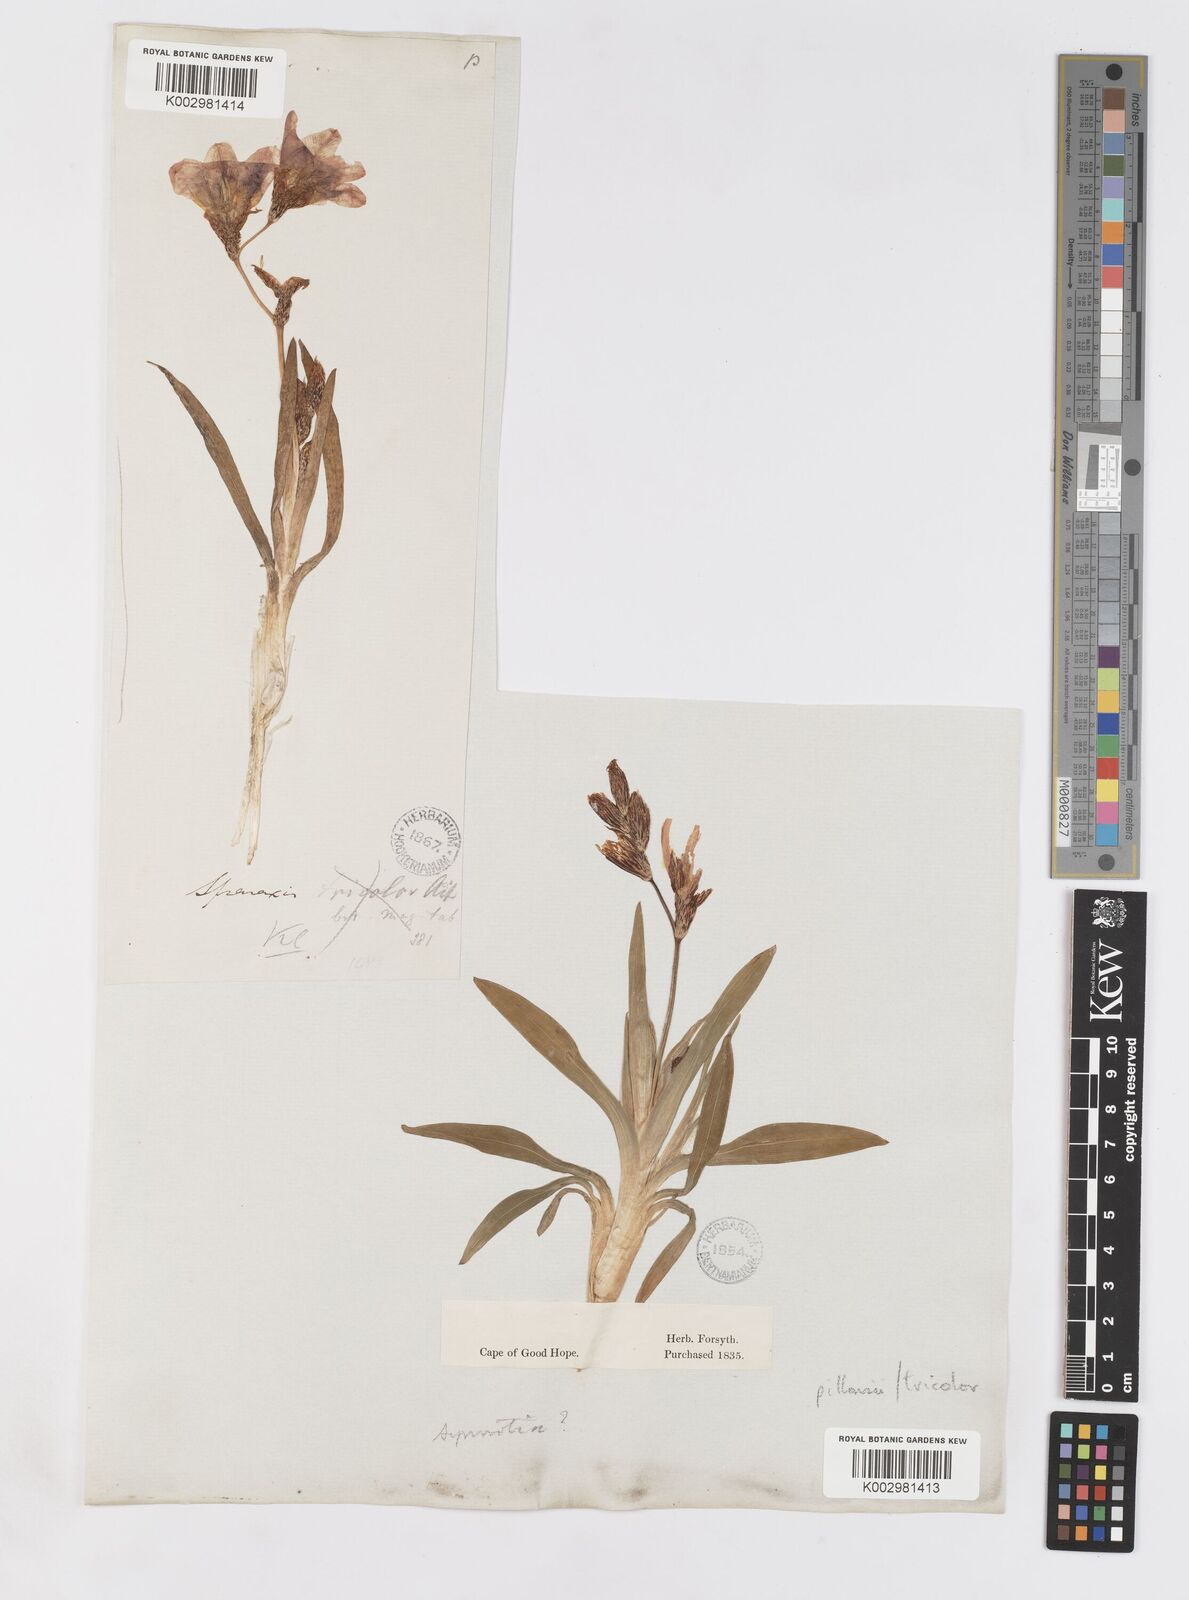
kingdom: Plantae
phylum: Tracheophyta
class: Liliopsida
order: Asparagales
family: Iridaceae
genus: Sparaxis
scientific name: Sparaxis tricolor
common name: Wandflower
